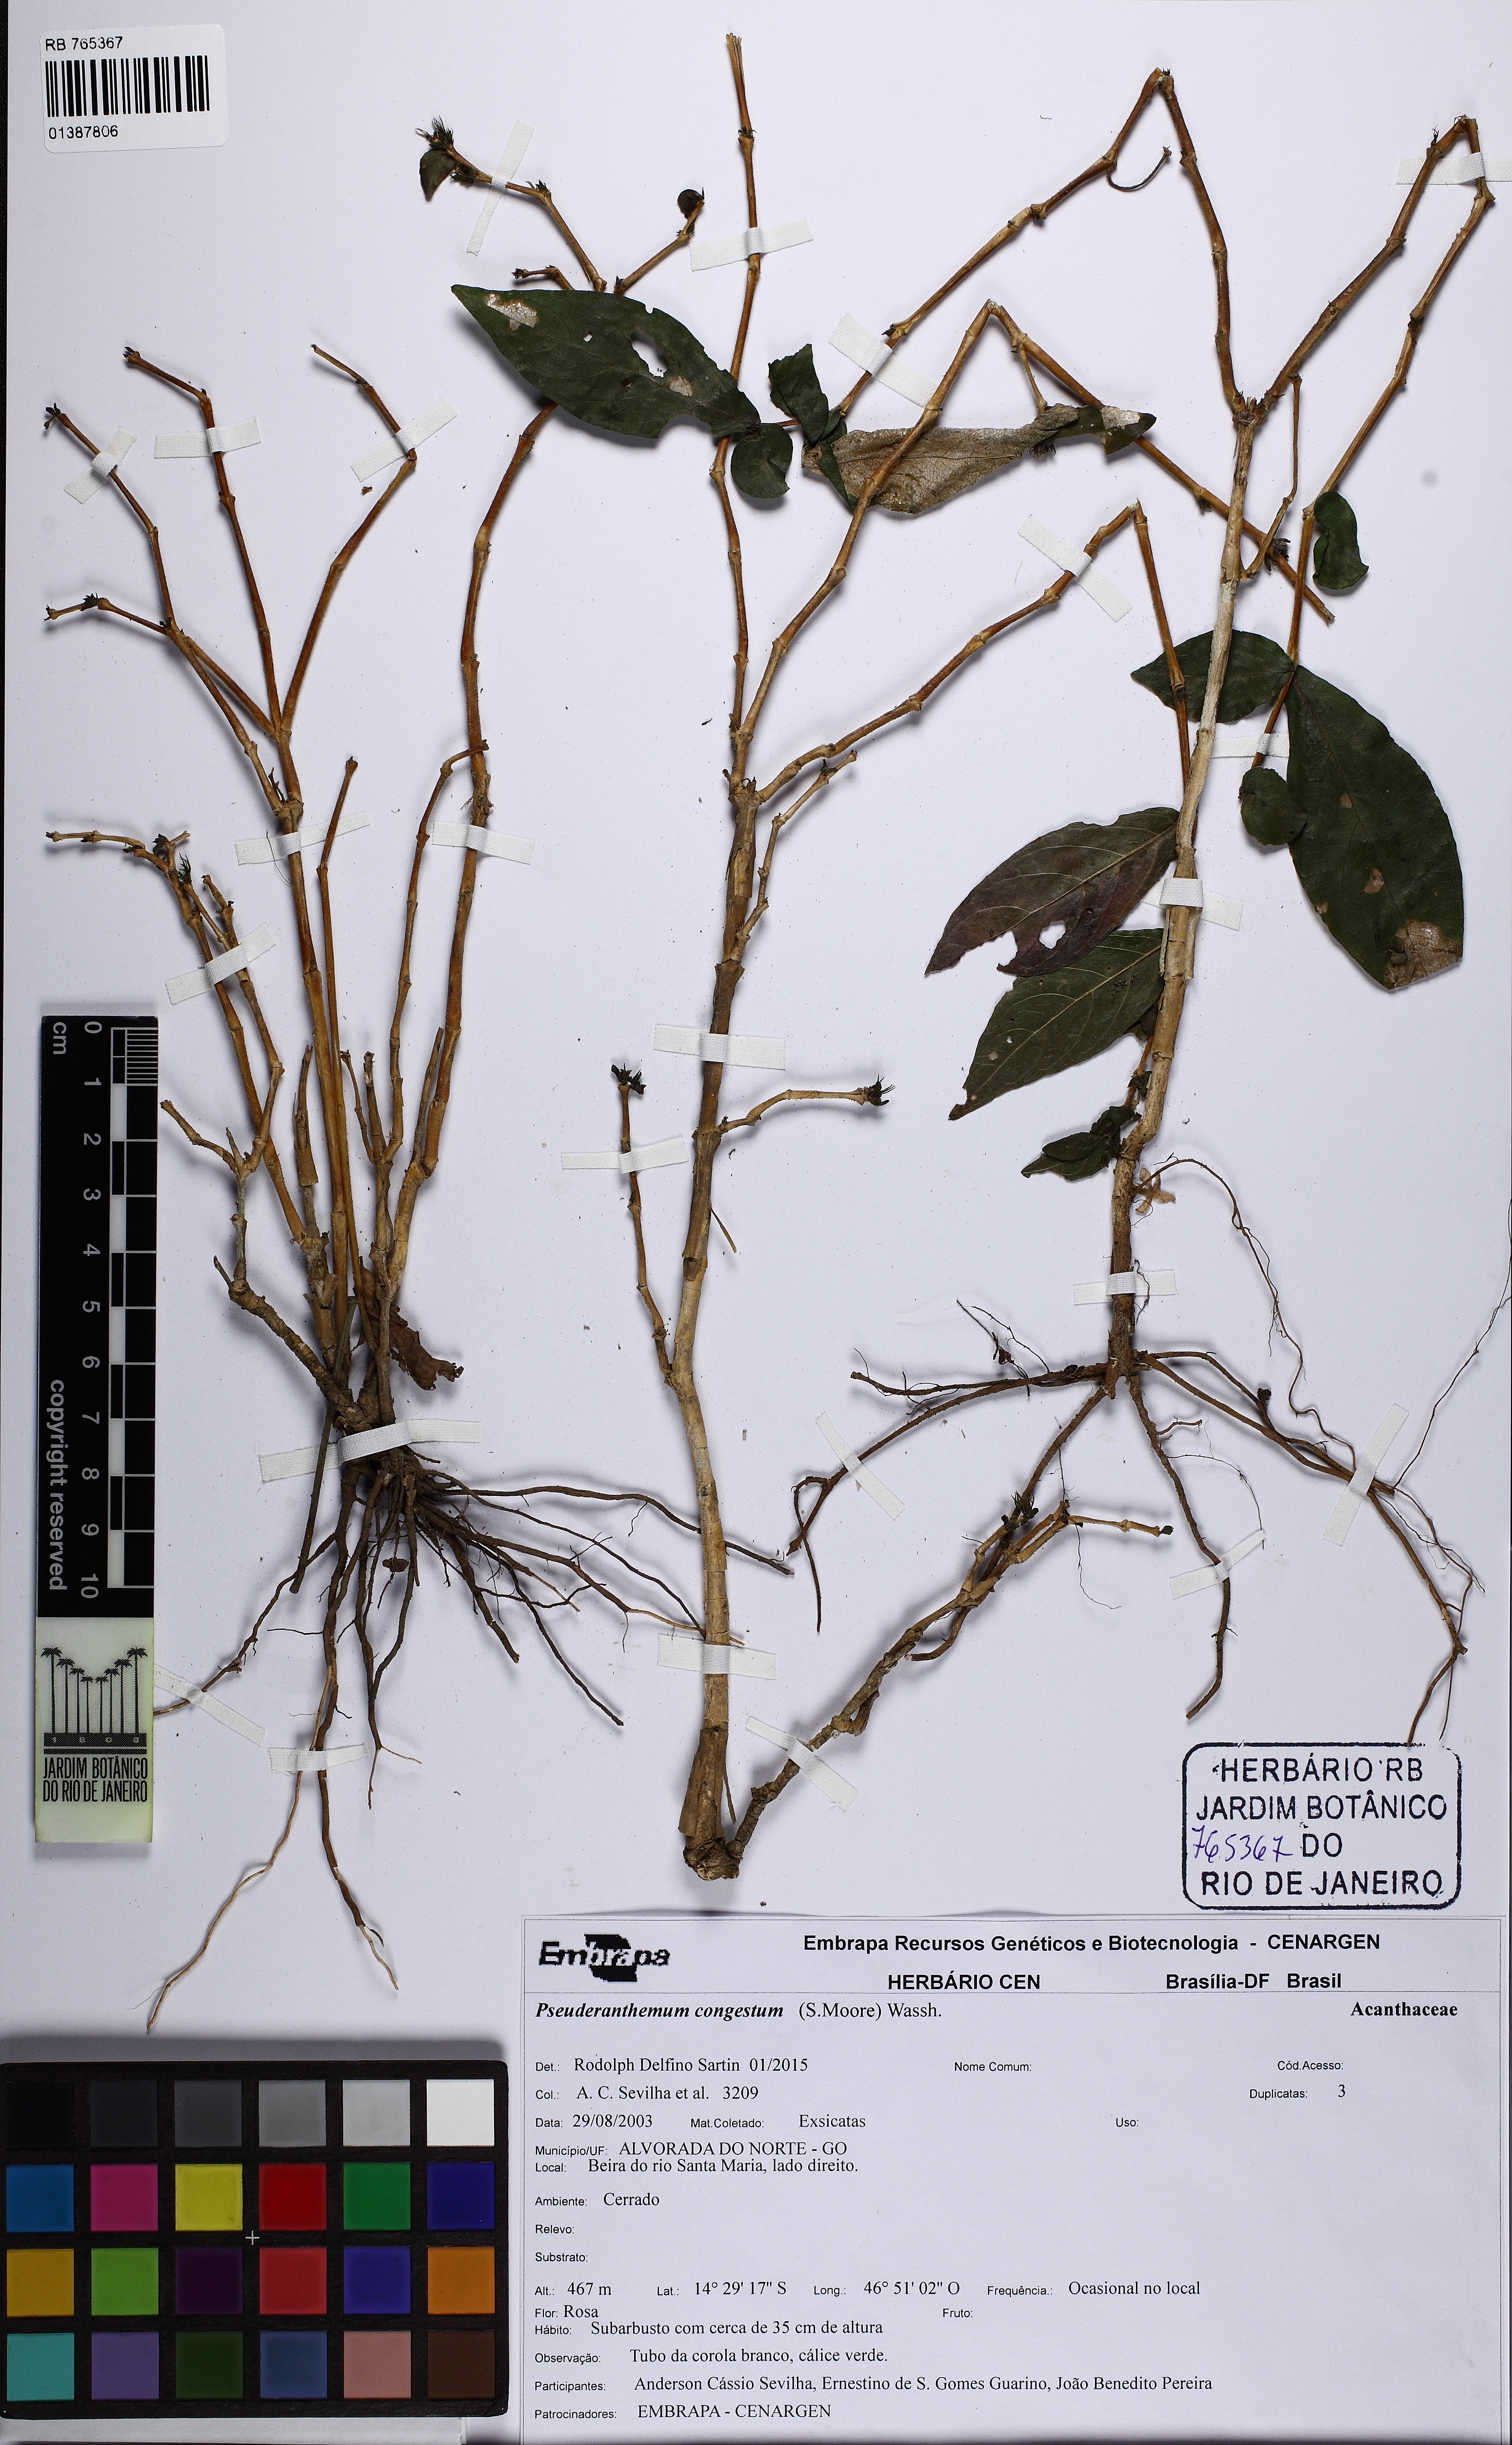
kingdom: Plantae
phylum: Tracheophyta
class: Magnoliopsida
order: Lamiales
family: Acanthaceae
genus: Pseuderanthemum
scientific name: Pseuderanthemum congestum
